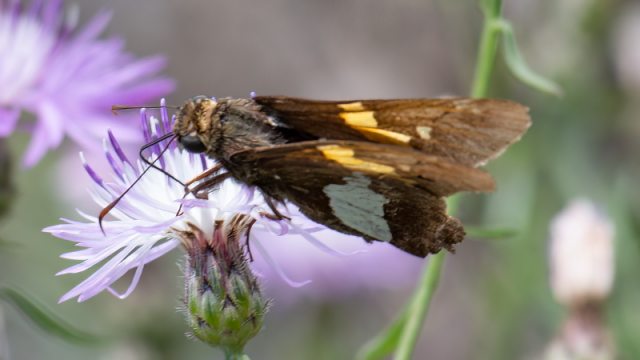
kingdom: Animalia
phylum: Arthropoda
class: Insecta
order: Lepidoptera
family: Hesperiidae
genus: Epargyreus
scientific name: Epargyreus clarus
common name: Silver-spotted Skipper
